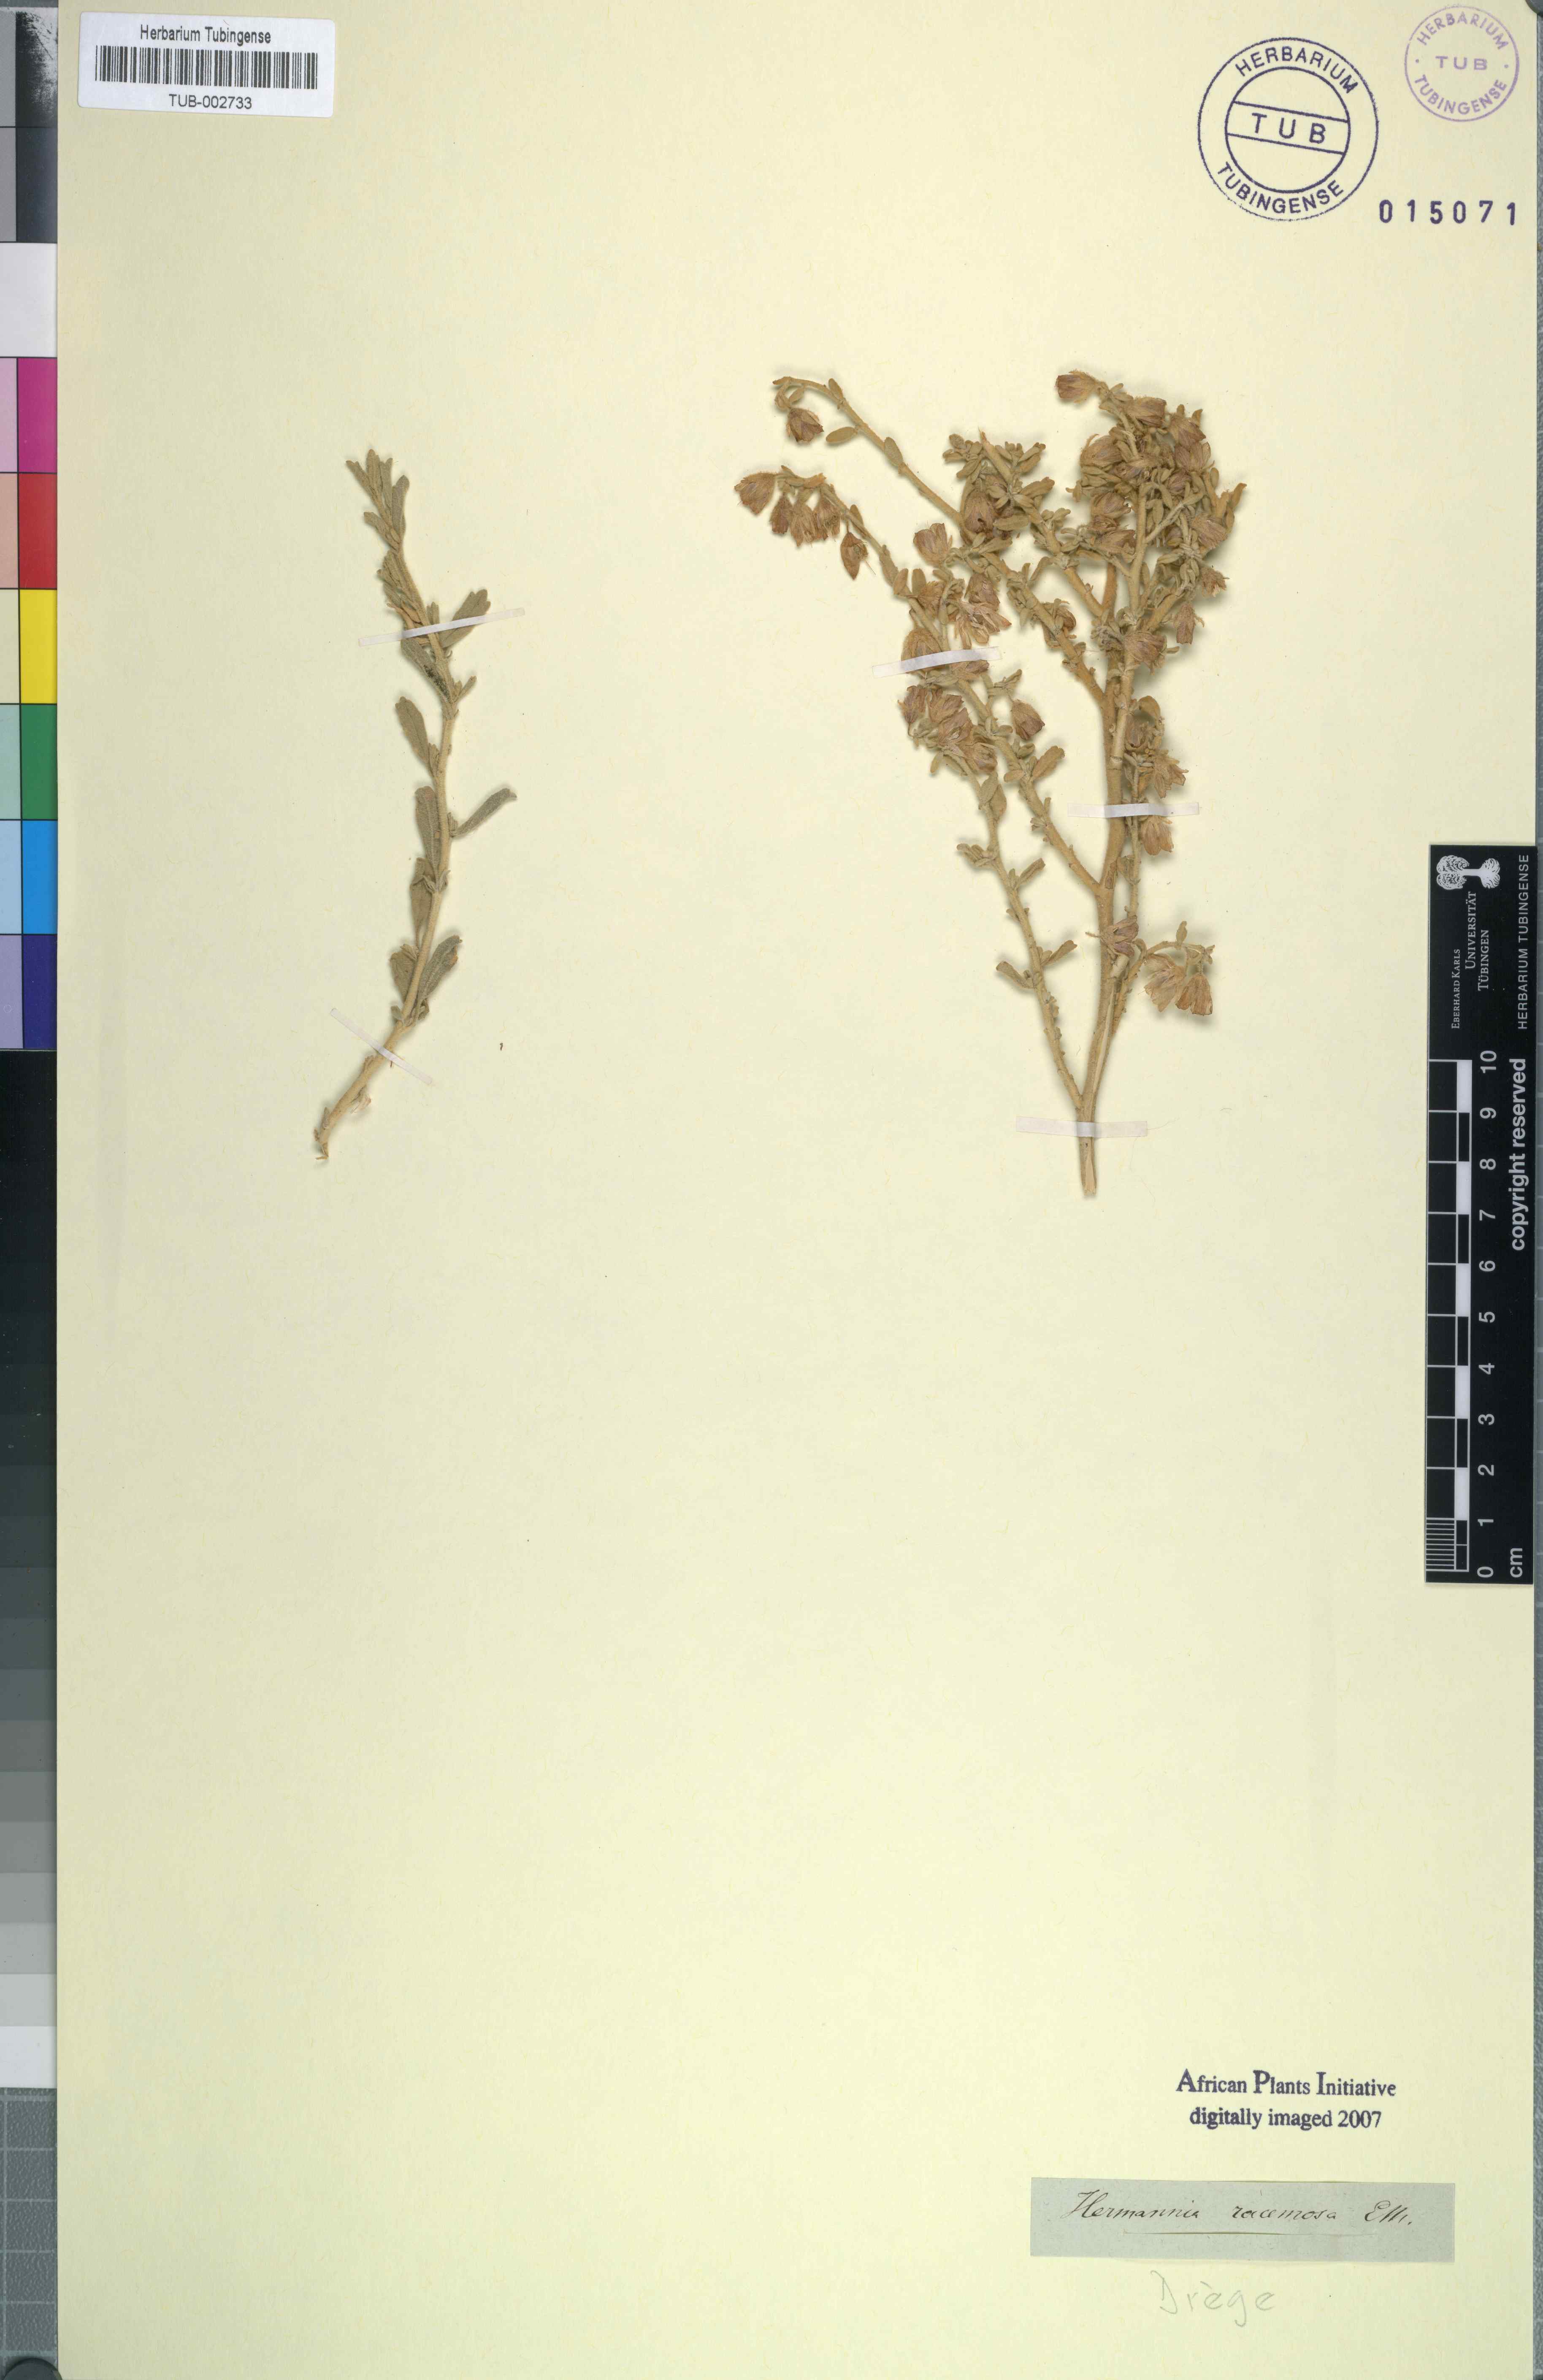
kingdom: Plantae
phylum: Tracheophyta
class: Magnoliopsida
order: Malvales
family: Malvaceae
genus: Hermannia
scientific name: Hermannia gariepina
